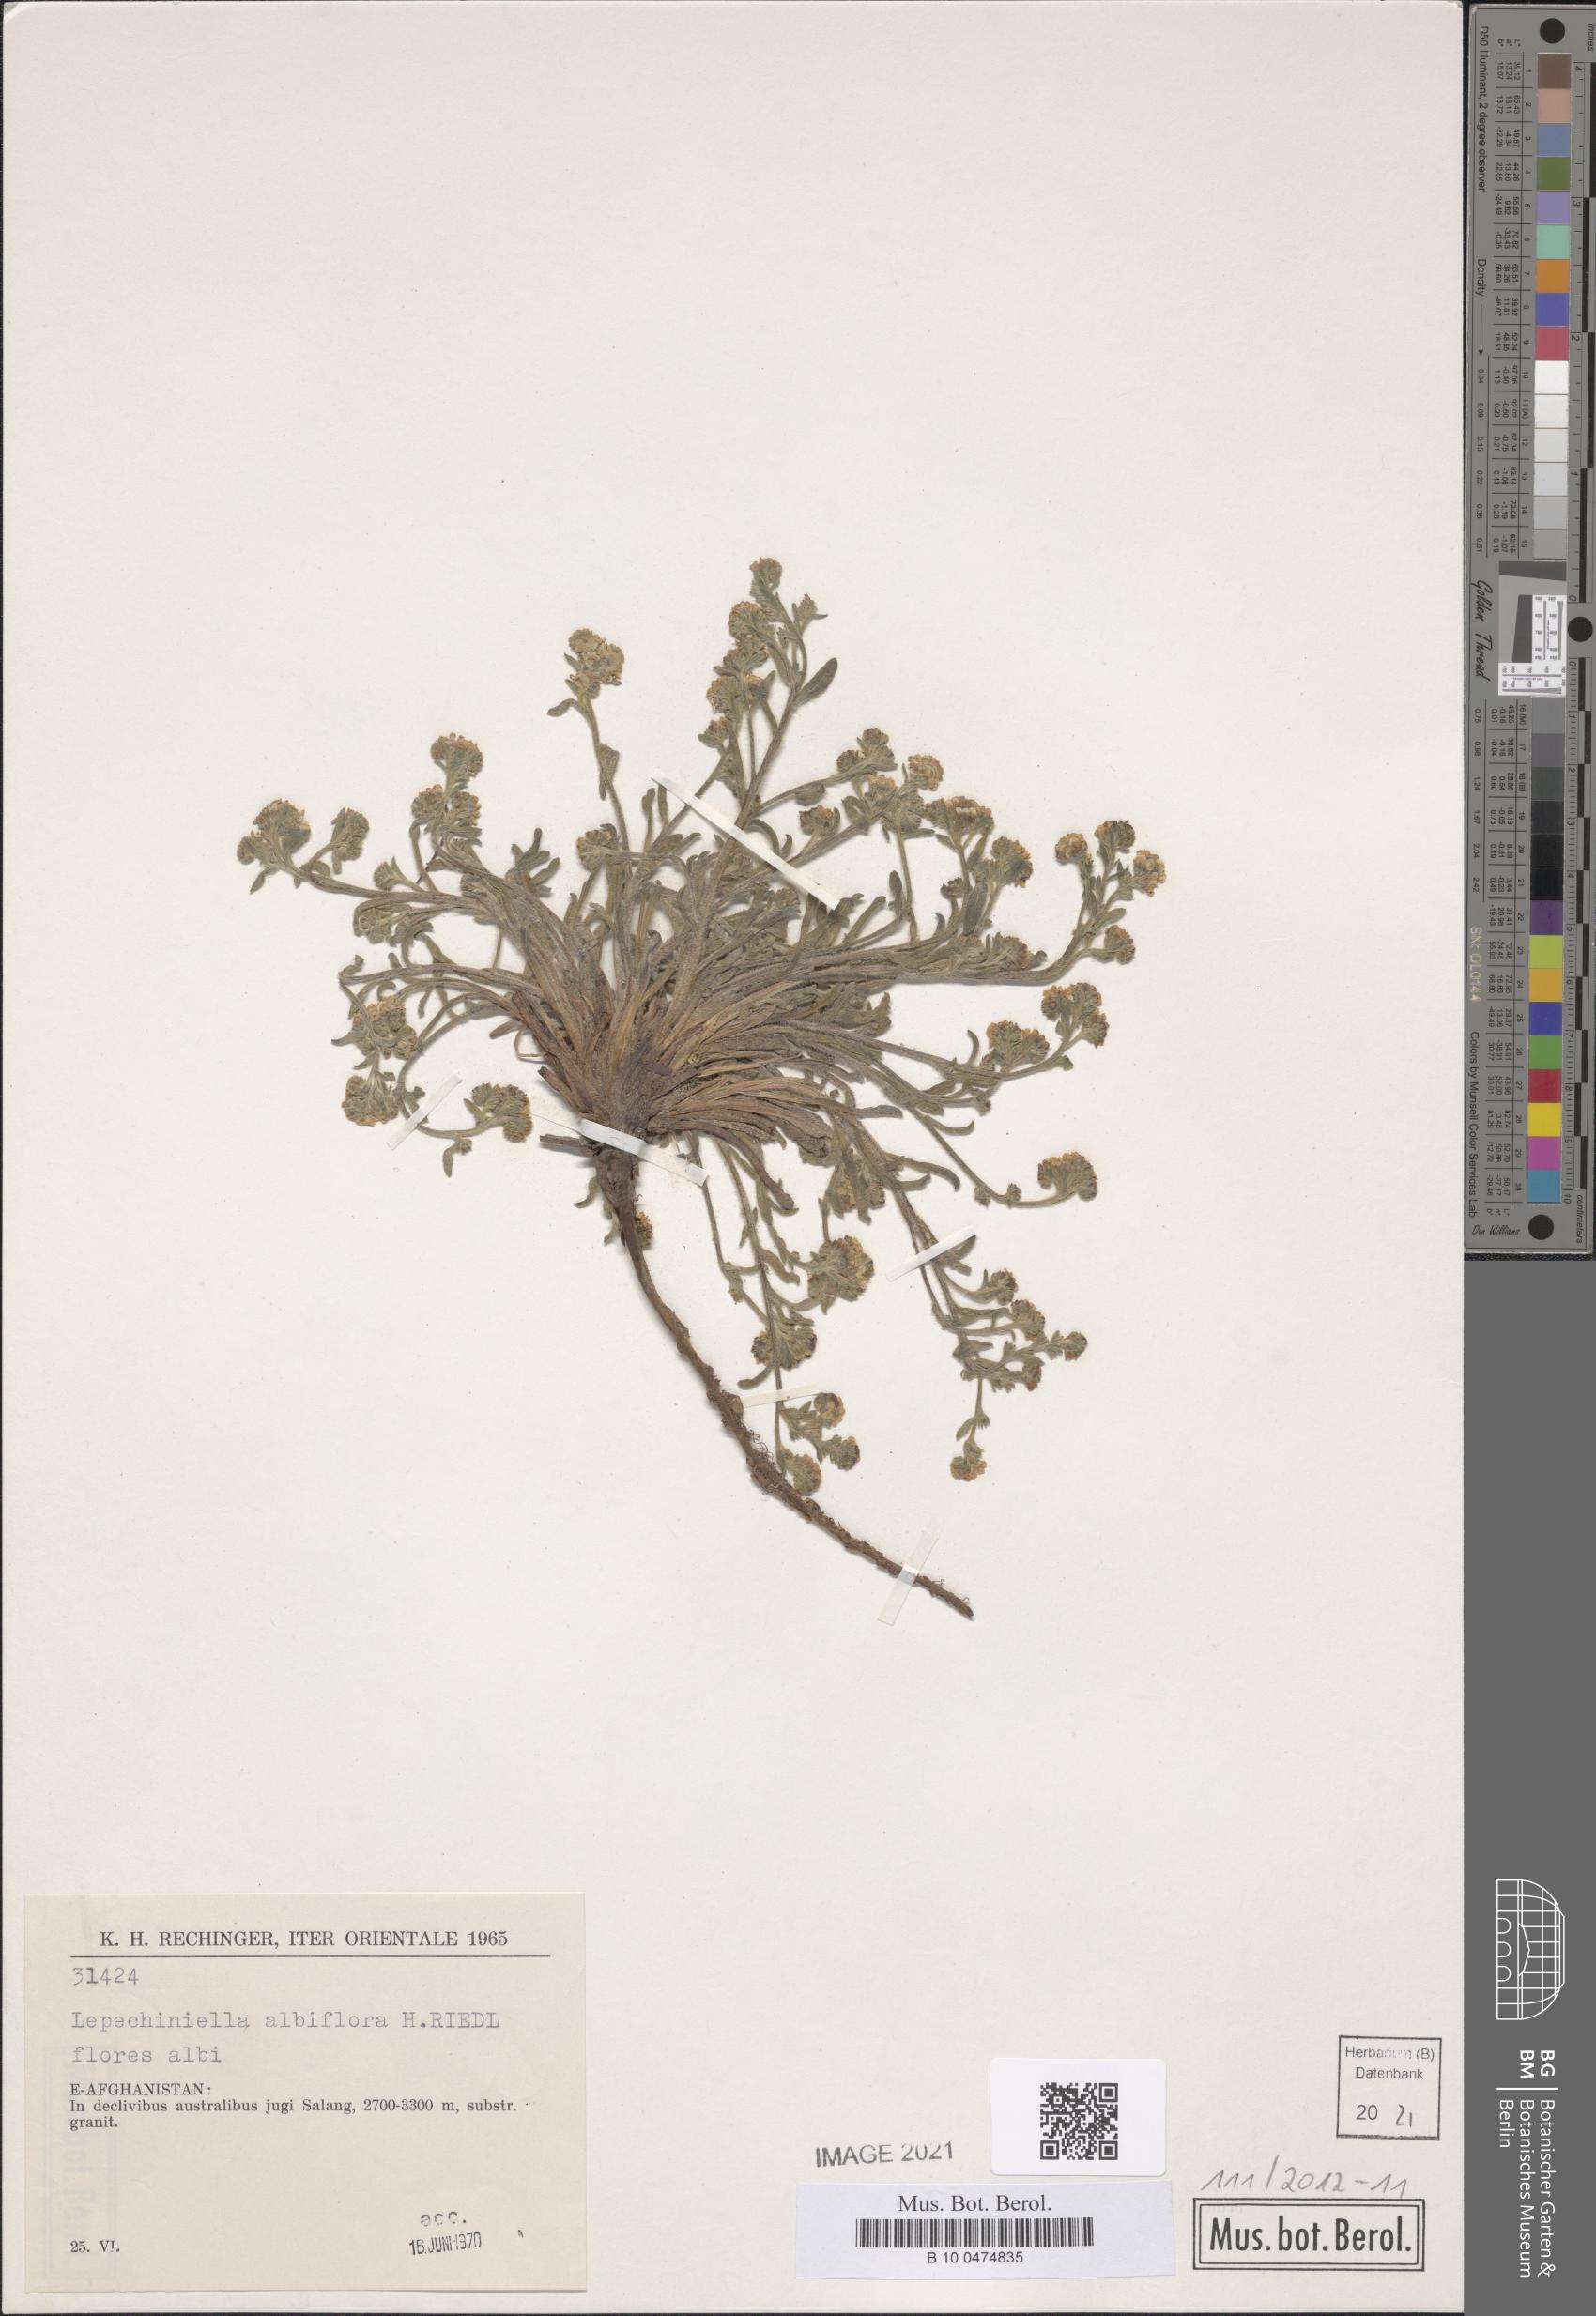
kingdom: Plantae
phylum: Tracheophyta
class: Magnoliopsida
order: Boraginales
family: Boraginaceae
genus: Lappula
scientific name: Lappula albiflora
